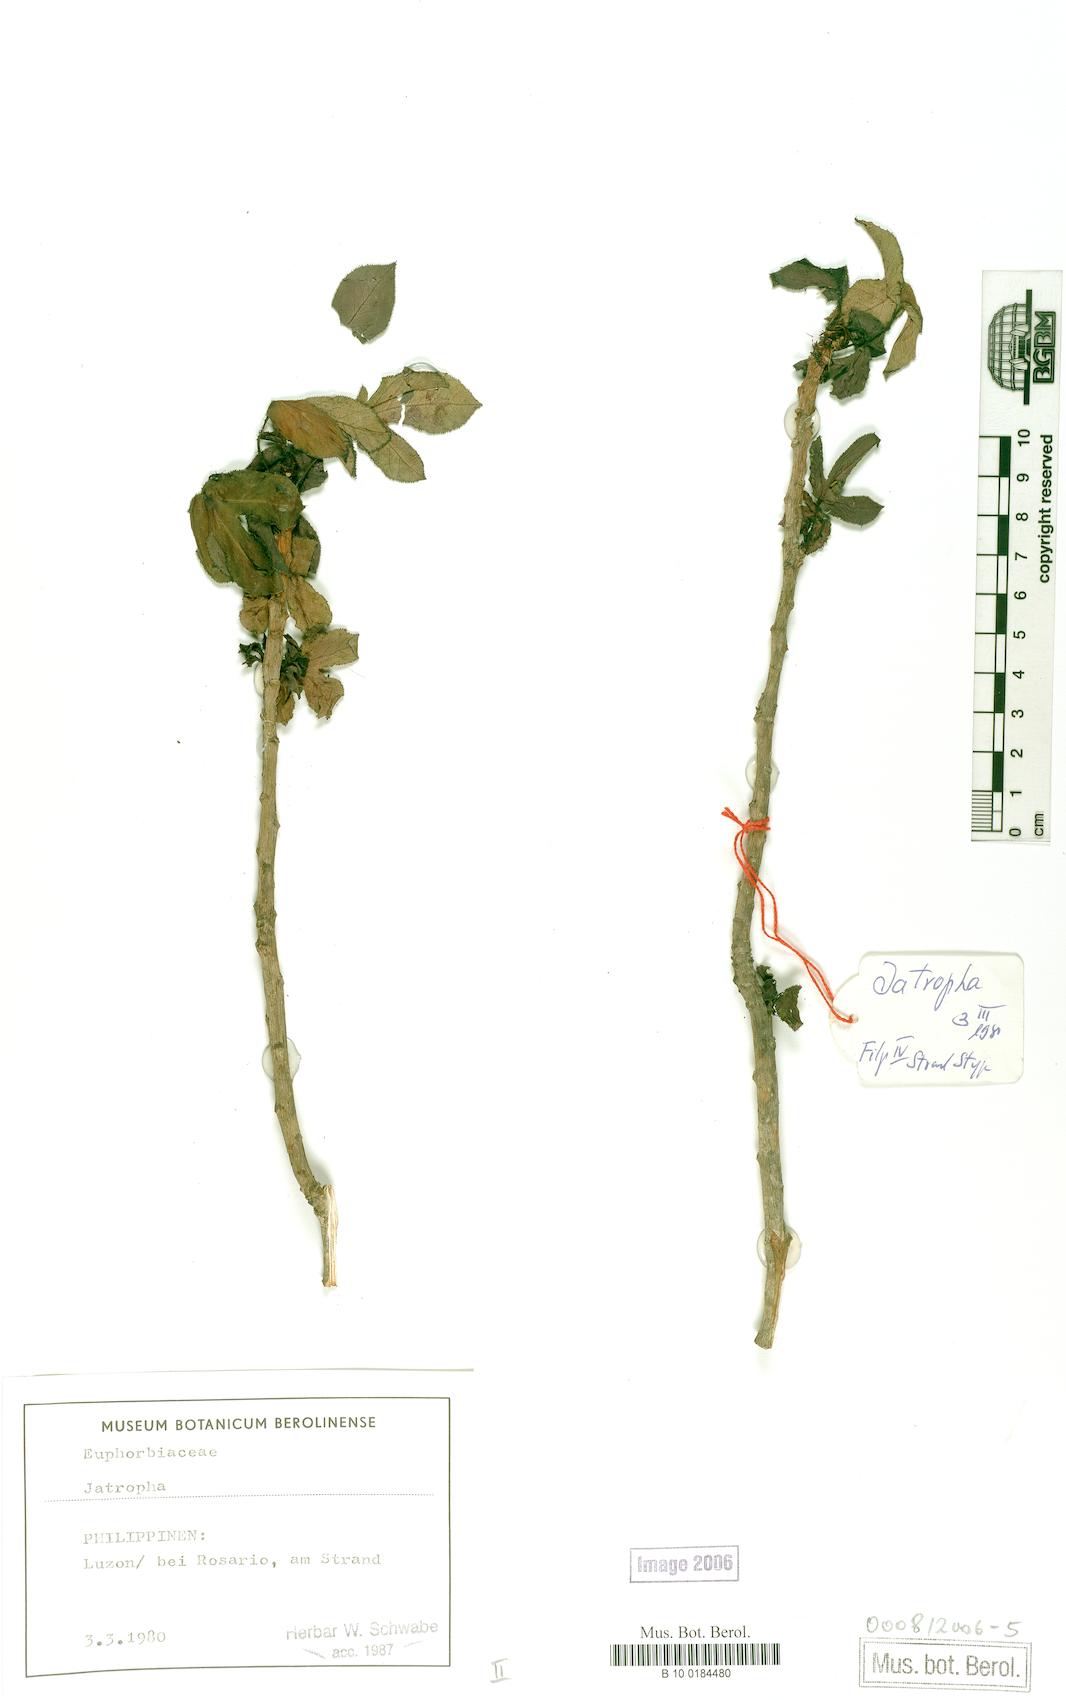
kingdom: Plantae
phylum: Tracheophyta
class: Magnoliopsida
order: Malpighiales
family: Euphorbiaceae
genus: Jatropha
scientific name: Jatropha gossypiifolia
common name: Bellyache bush
